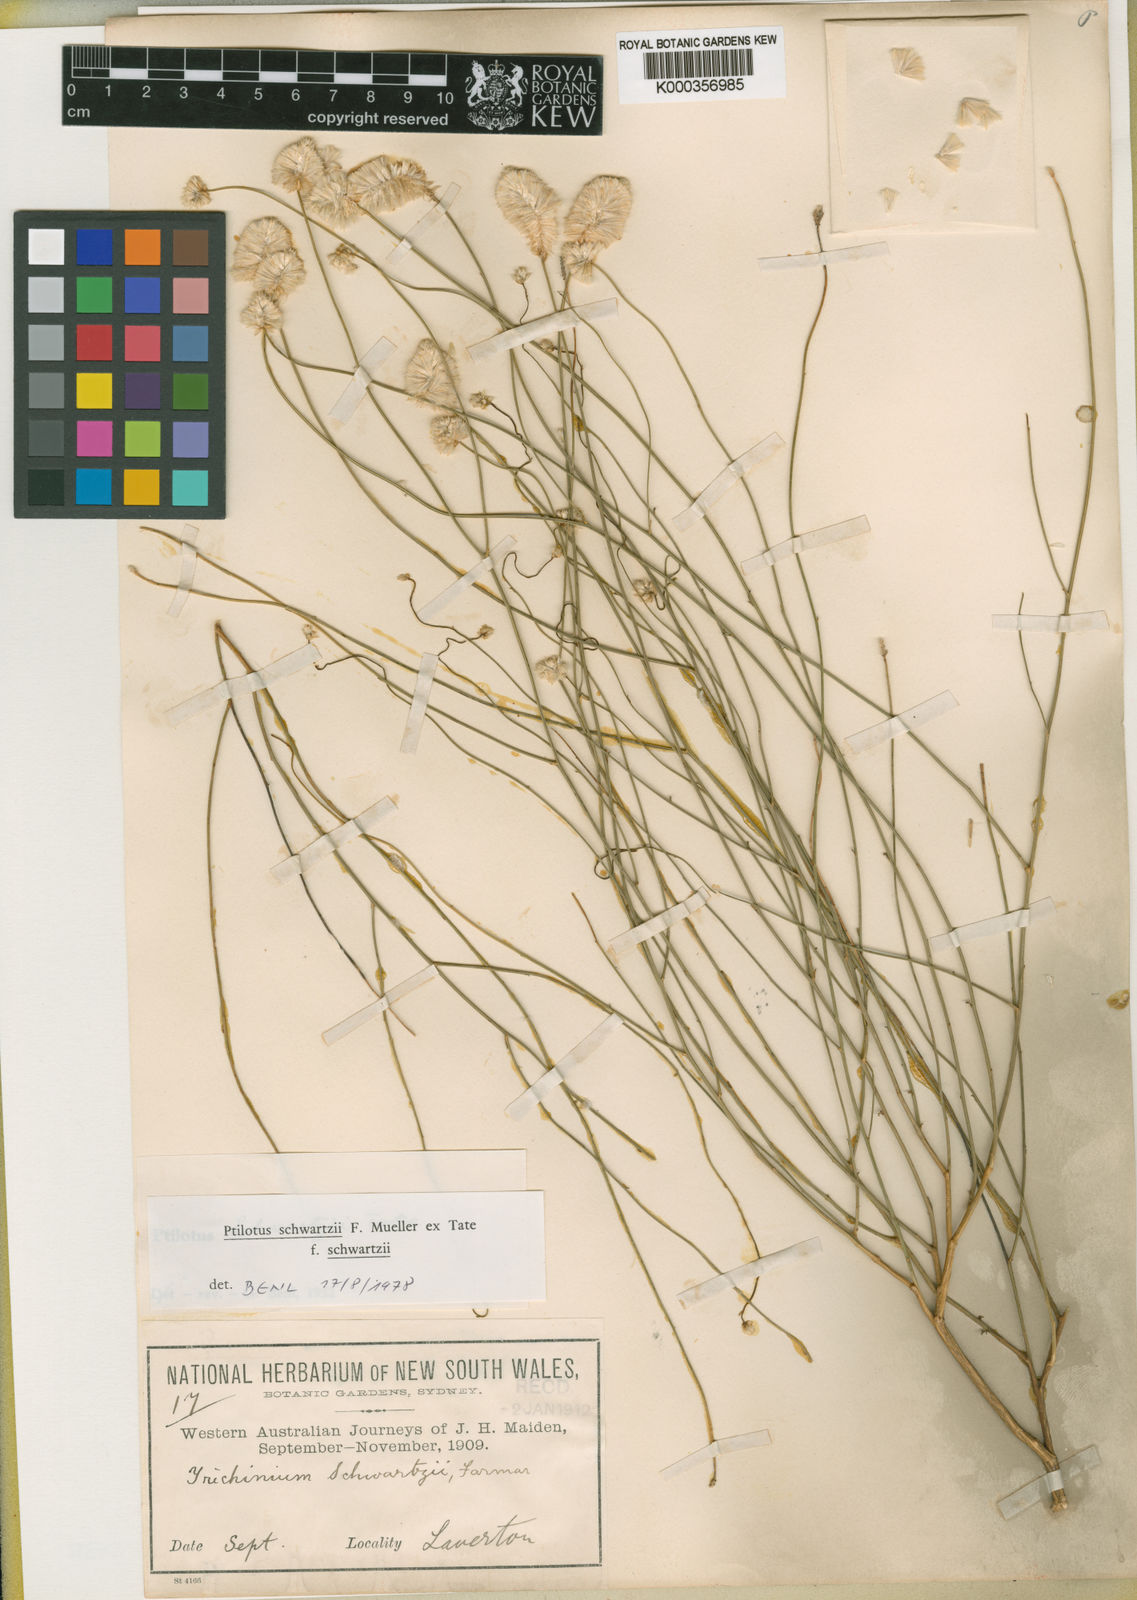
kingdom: Plantae
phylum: Tracheophyta
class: Magnoliopsida
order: Caryophyllales
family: Amaranthaceae
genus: Ptilotus
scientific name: Ptilotus
